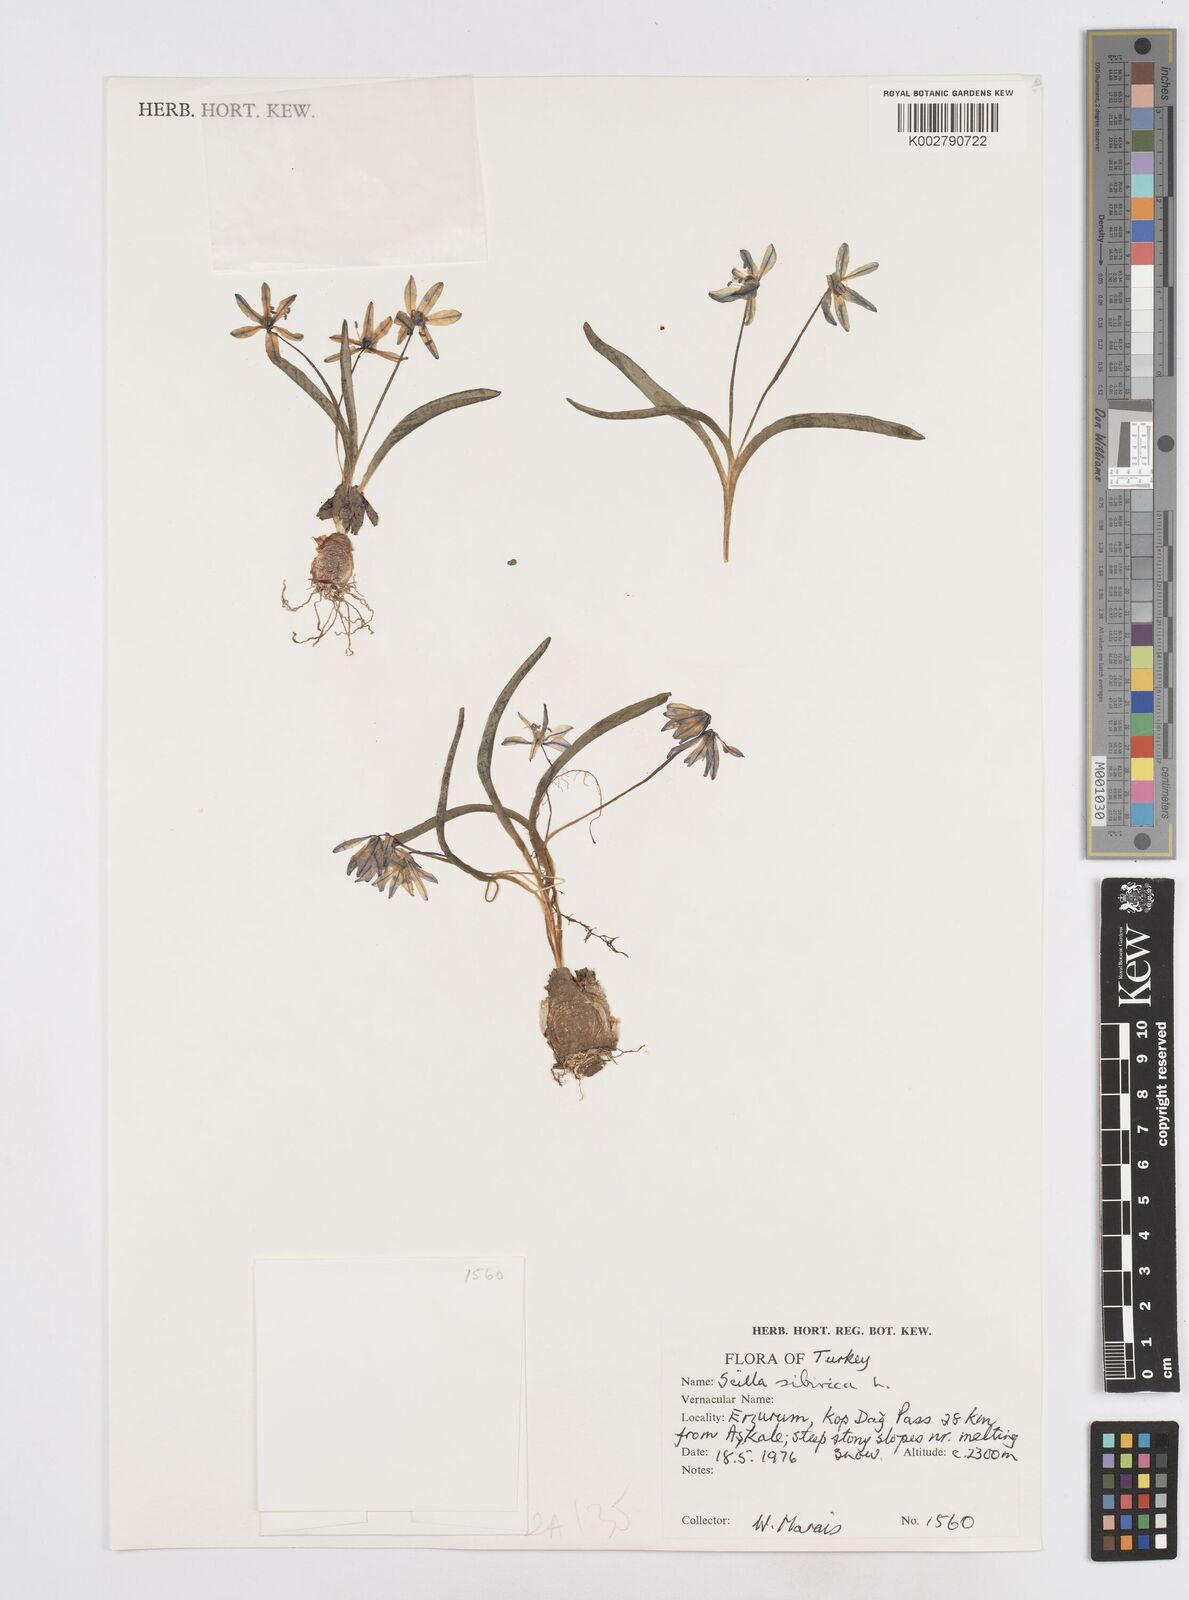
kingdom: Plantae
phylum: Tracheophyta
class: Liliopsida
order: Asparagales
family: Asparagaceae
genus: Scilla
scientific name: Scilla siberica
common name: Siberian squill
